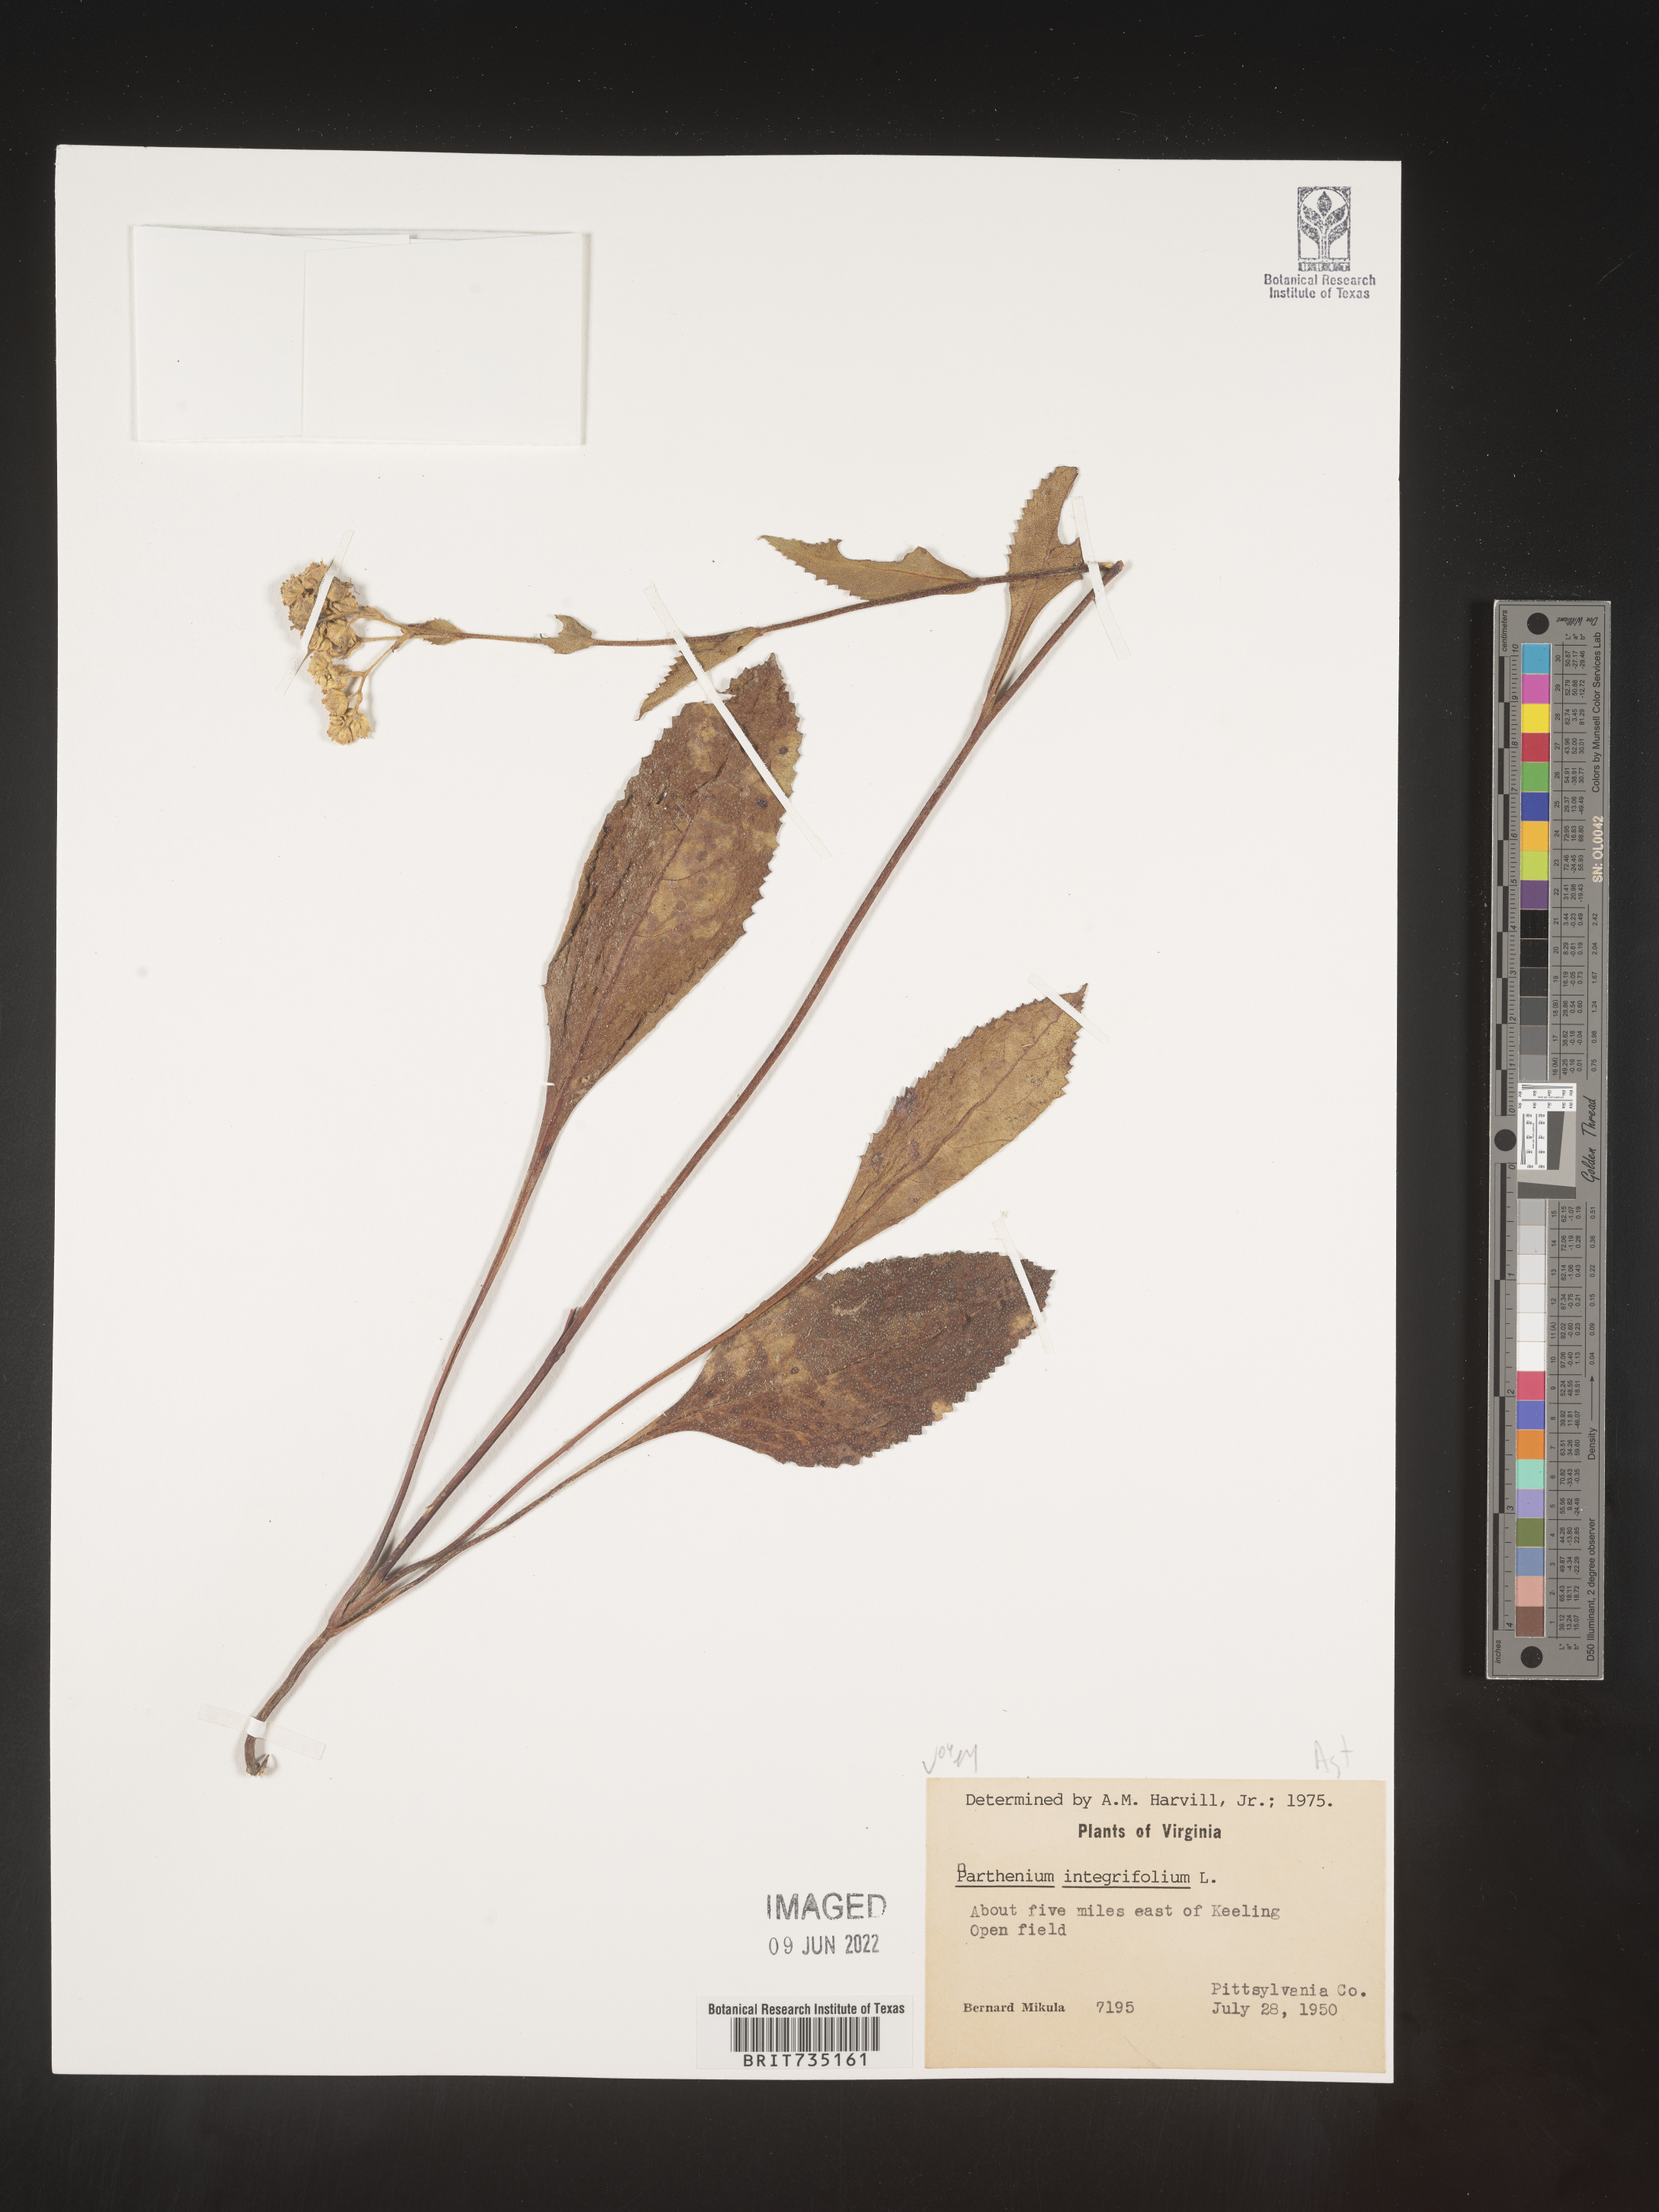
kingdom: Plantae
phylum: Tracheophyta
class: Magnoliopsida
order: Asterales
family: Asteraceae
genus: Parthenium
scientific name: Parthenium integrifolium
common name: American feverfew
